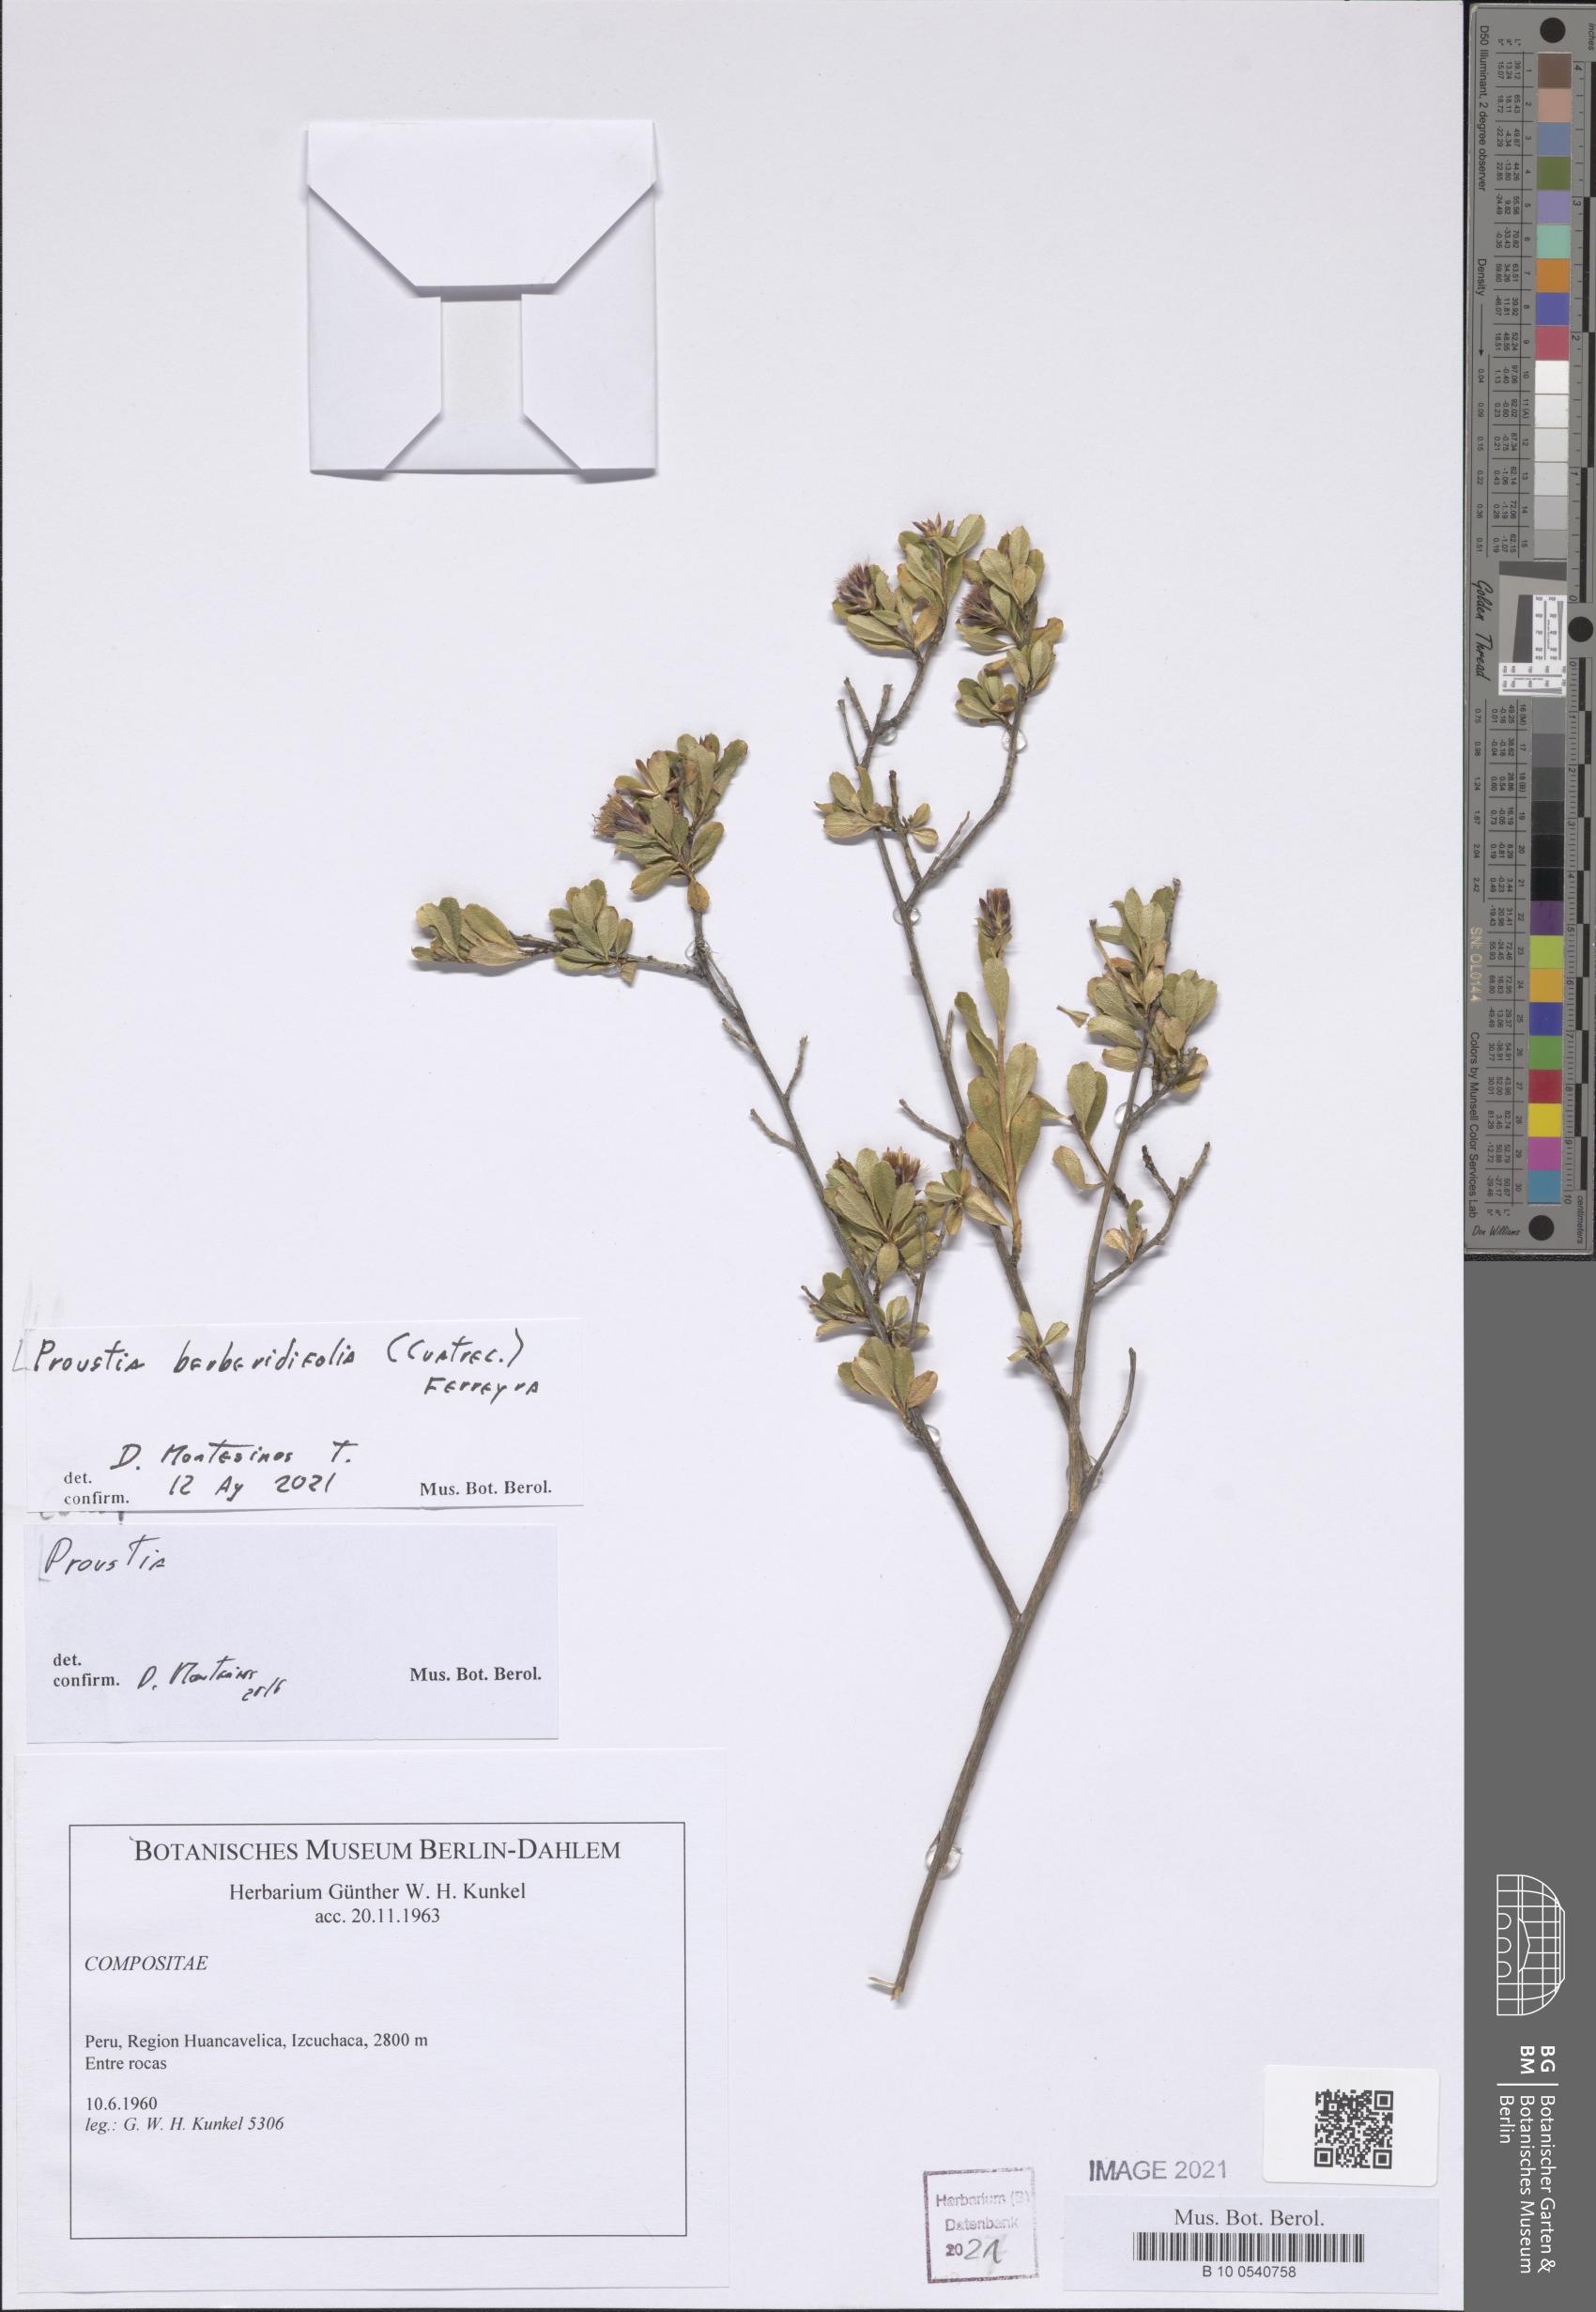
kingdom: Plantae
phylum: Tracheophyta
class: Magnoliopsida
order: Asterales
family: Asteraceae
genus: Lophopappus
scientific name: Lophopappus berberidifolius
